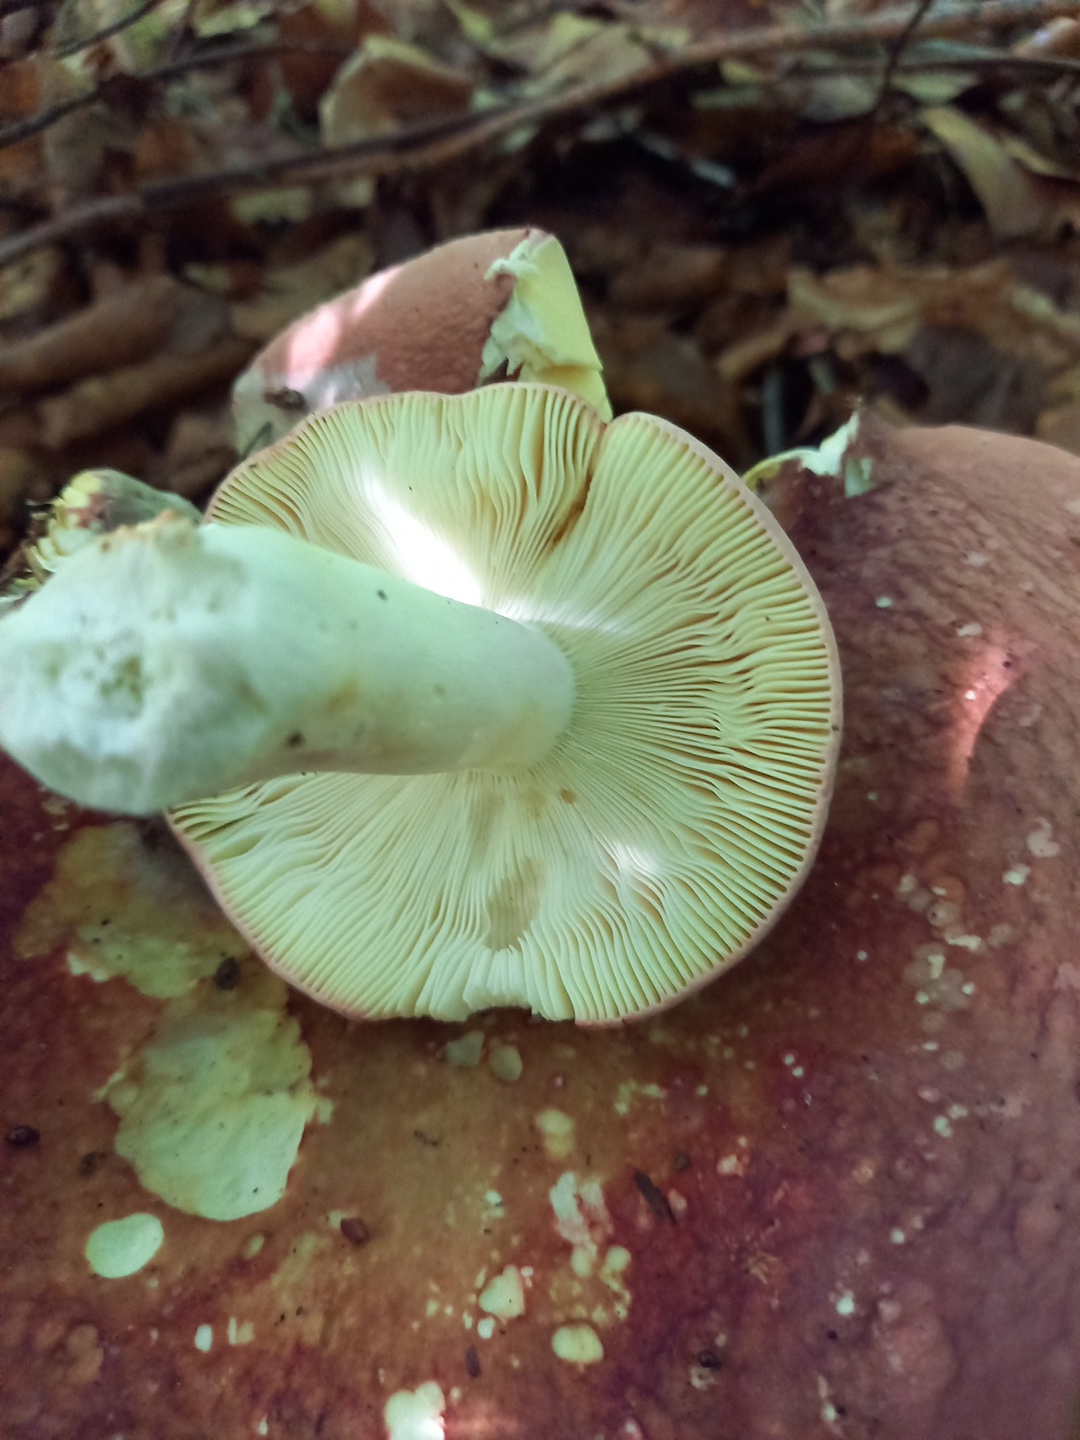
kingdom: Fungi
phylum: Basidiomycota
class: Agaricomycetes
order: Russulales
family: Russulaceae
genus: Russula
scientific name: Russula
